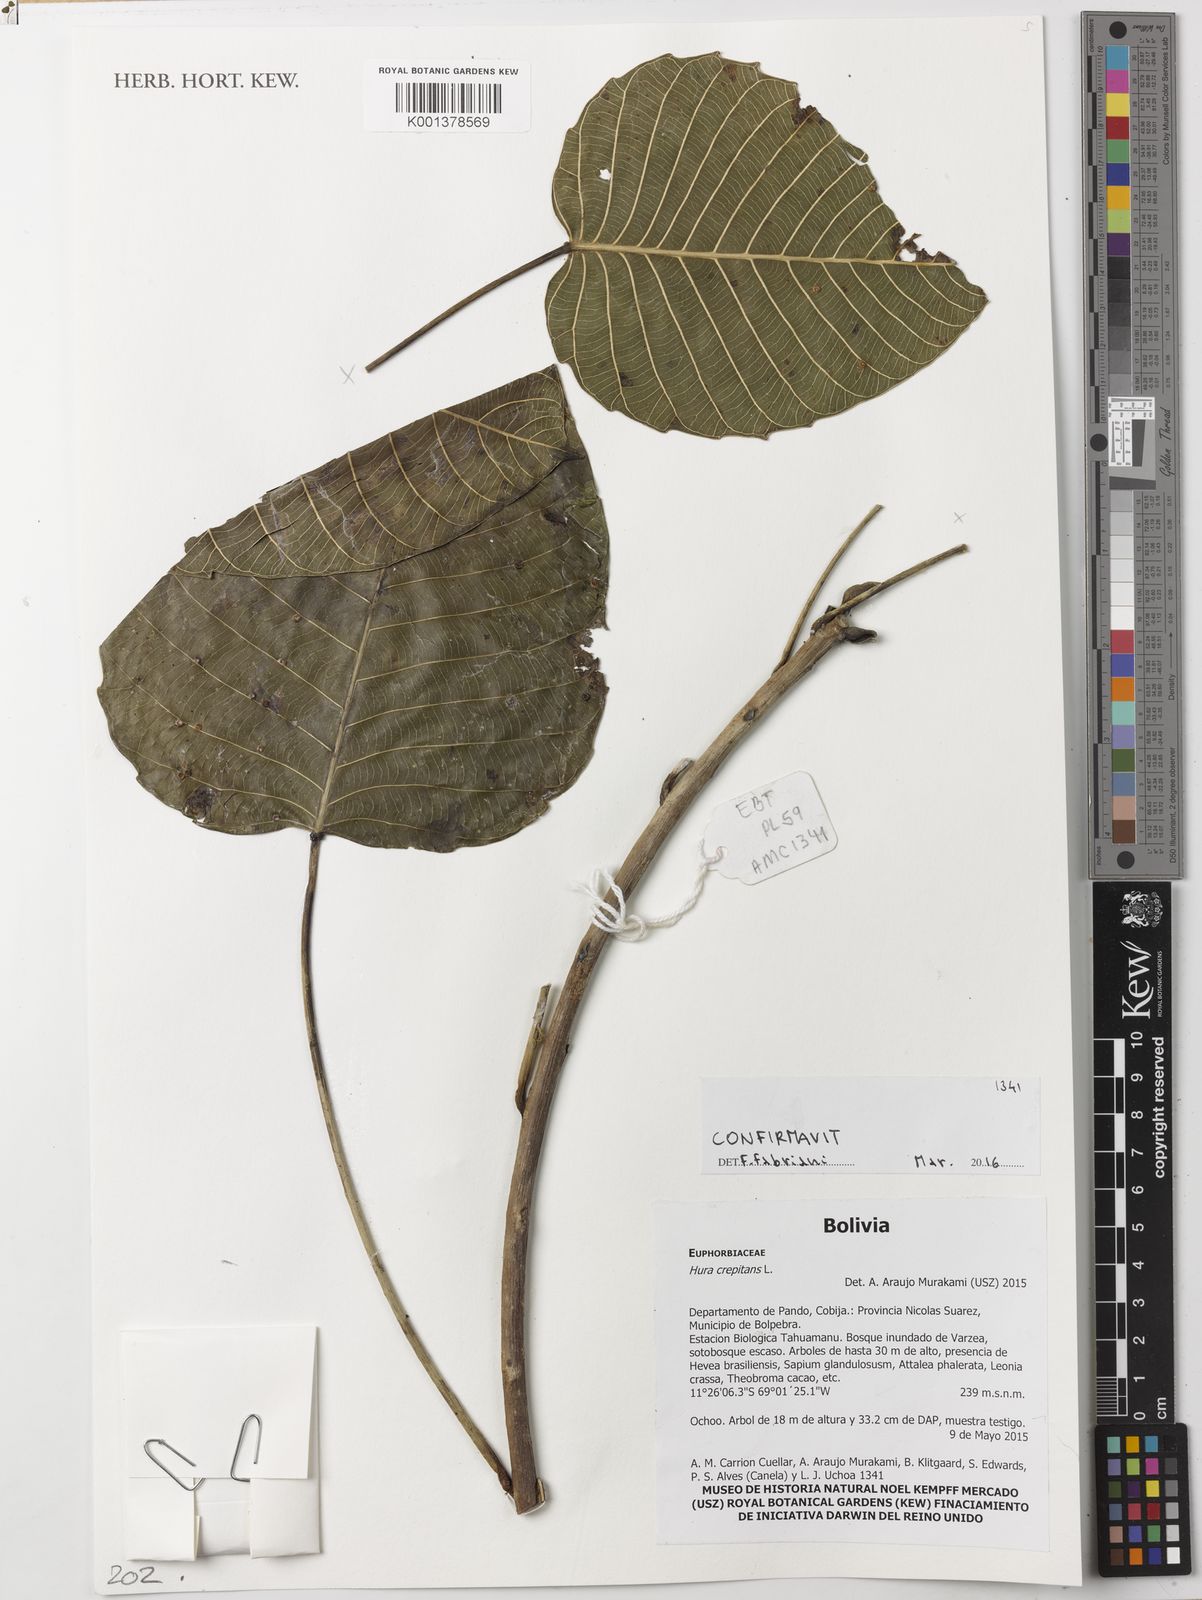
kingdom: Plantae
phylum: Tracheophyta
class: Magnoliopsida
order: Malpighiales
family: Euphorbiaceae
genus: Hura
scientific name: Hura crepitans
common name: Sandboxtree
